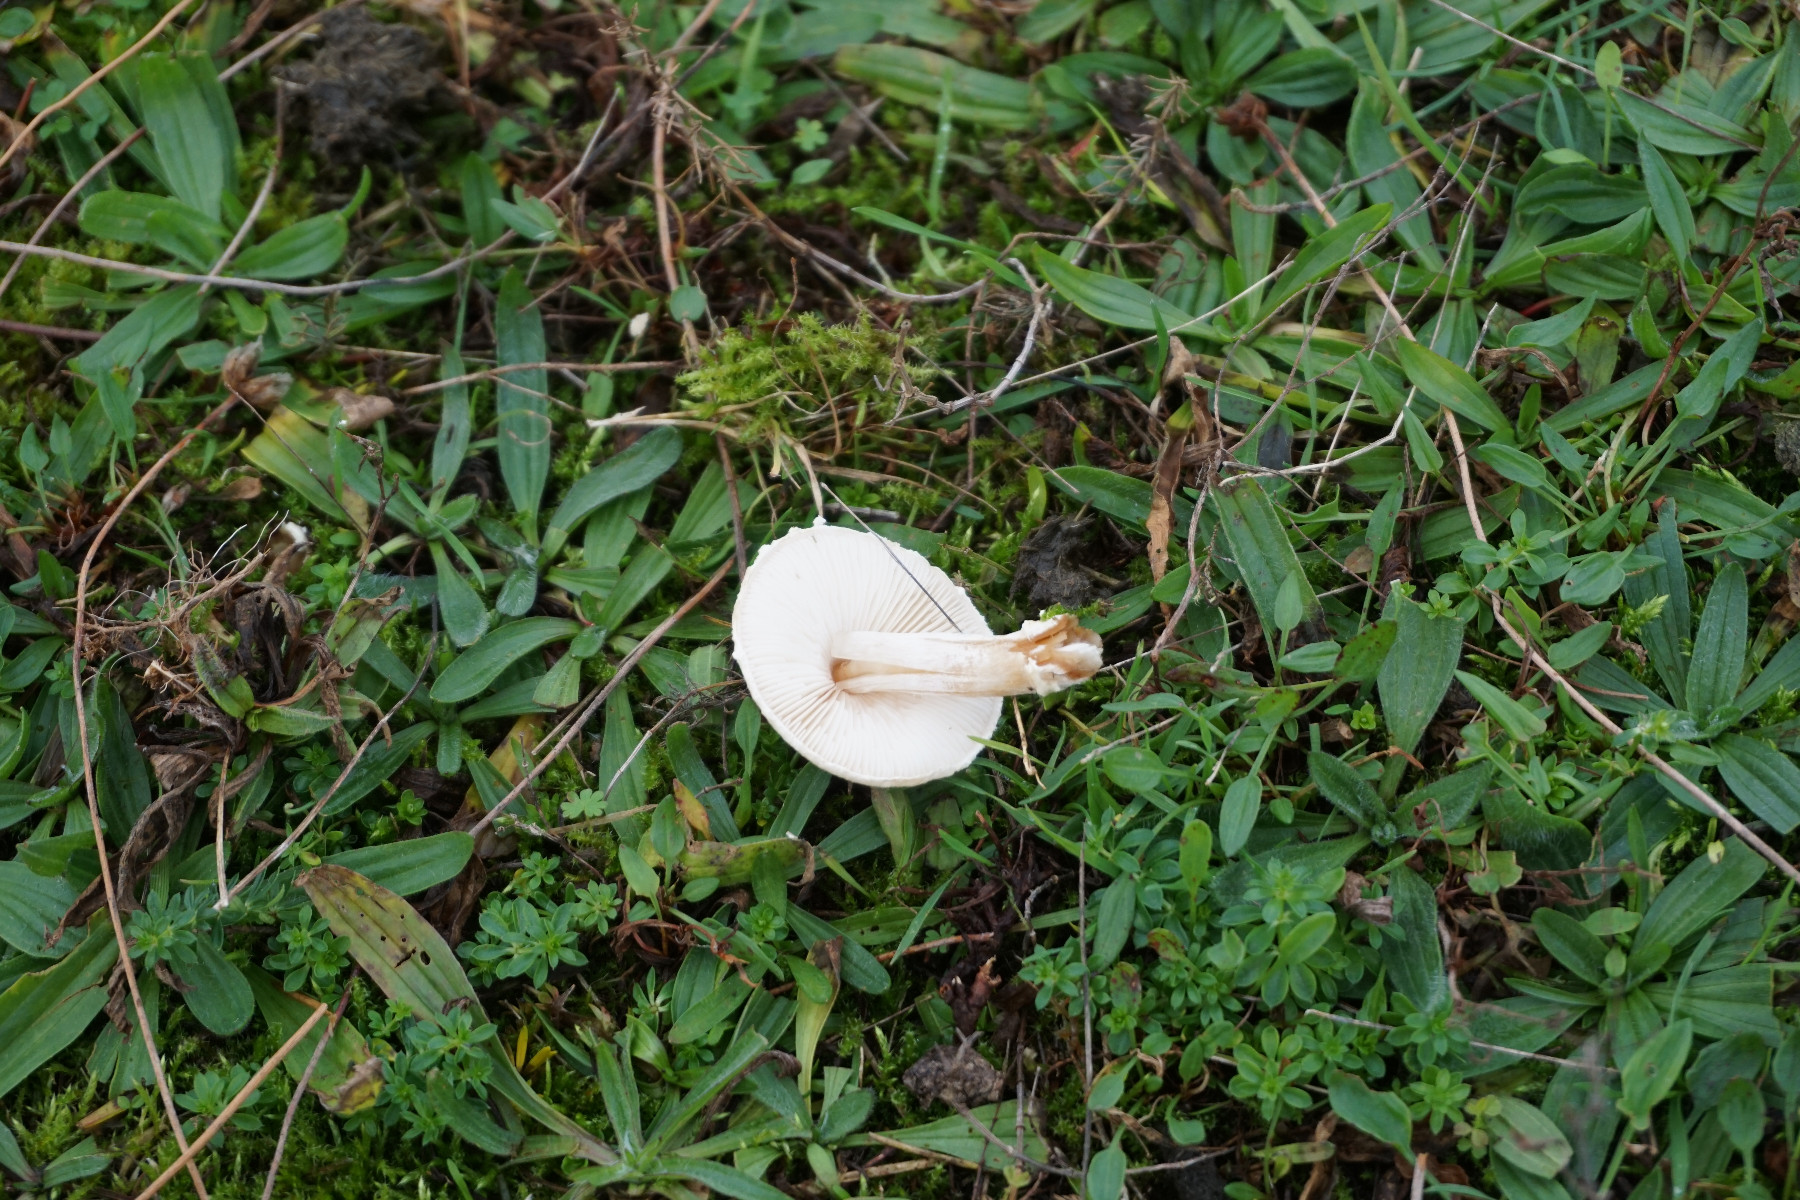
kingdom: Fungi
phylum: Basidiomycota
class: Agaricomycetes
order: Agaricales
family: Agaricaceae
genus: Lepiota
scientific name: Lepiota erminea
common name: hvid parasolhat
